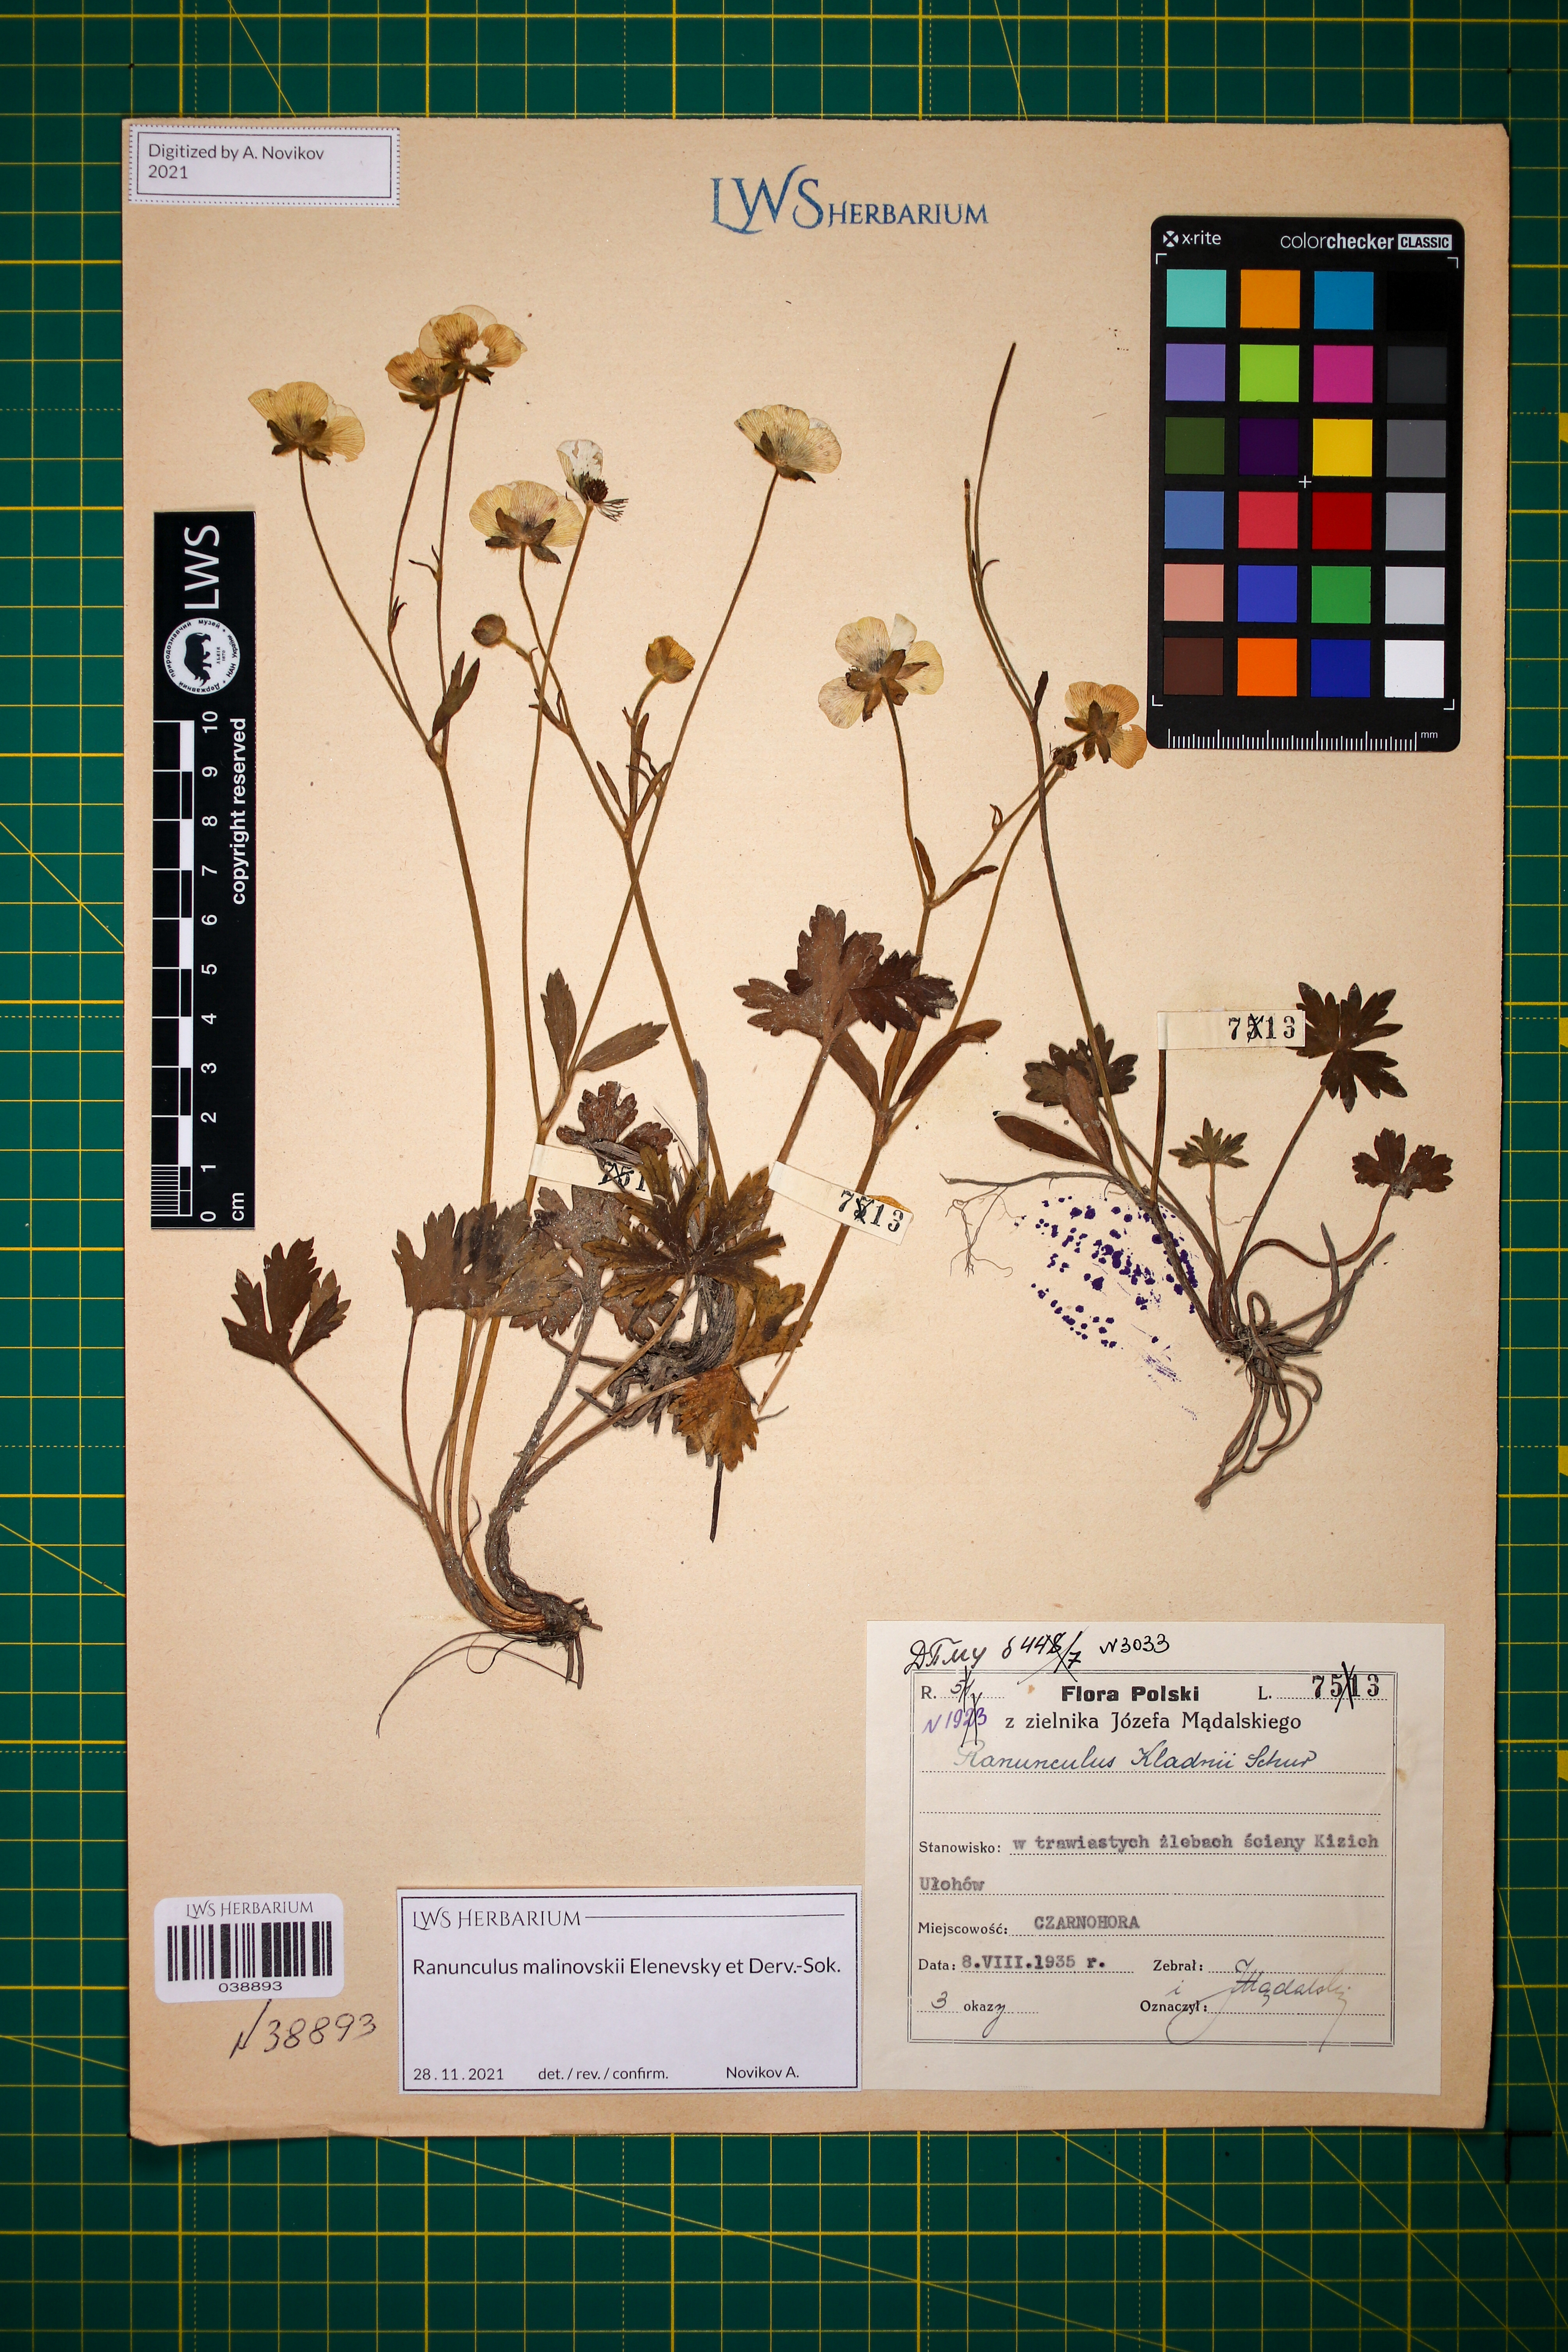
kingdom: Plantae
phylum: Tracheophyta
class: Magnoliopsida
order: Ranunculales
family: Ranunculaceae
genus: Ranunculus
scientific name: Ranunculus malinovskii
